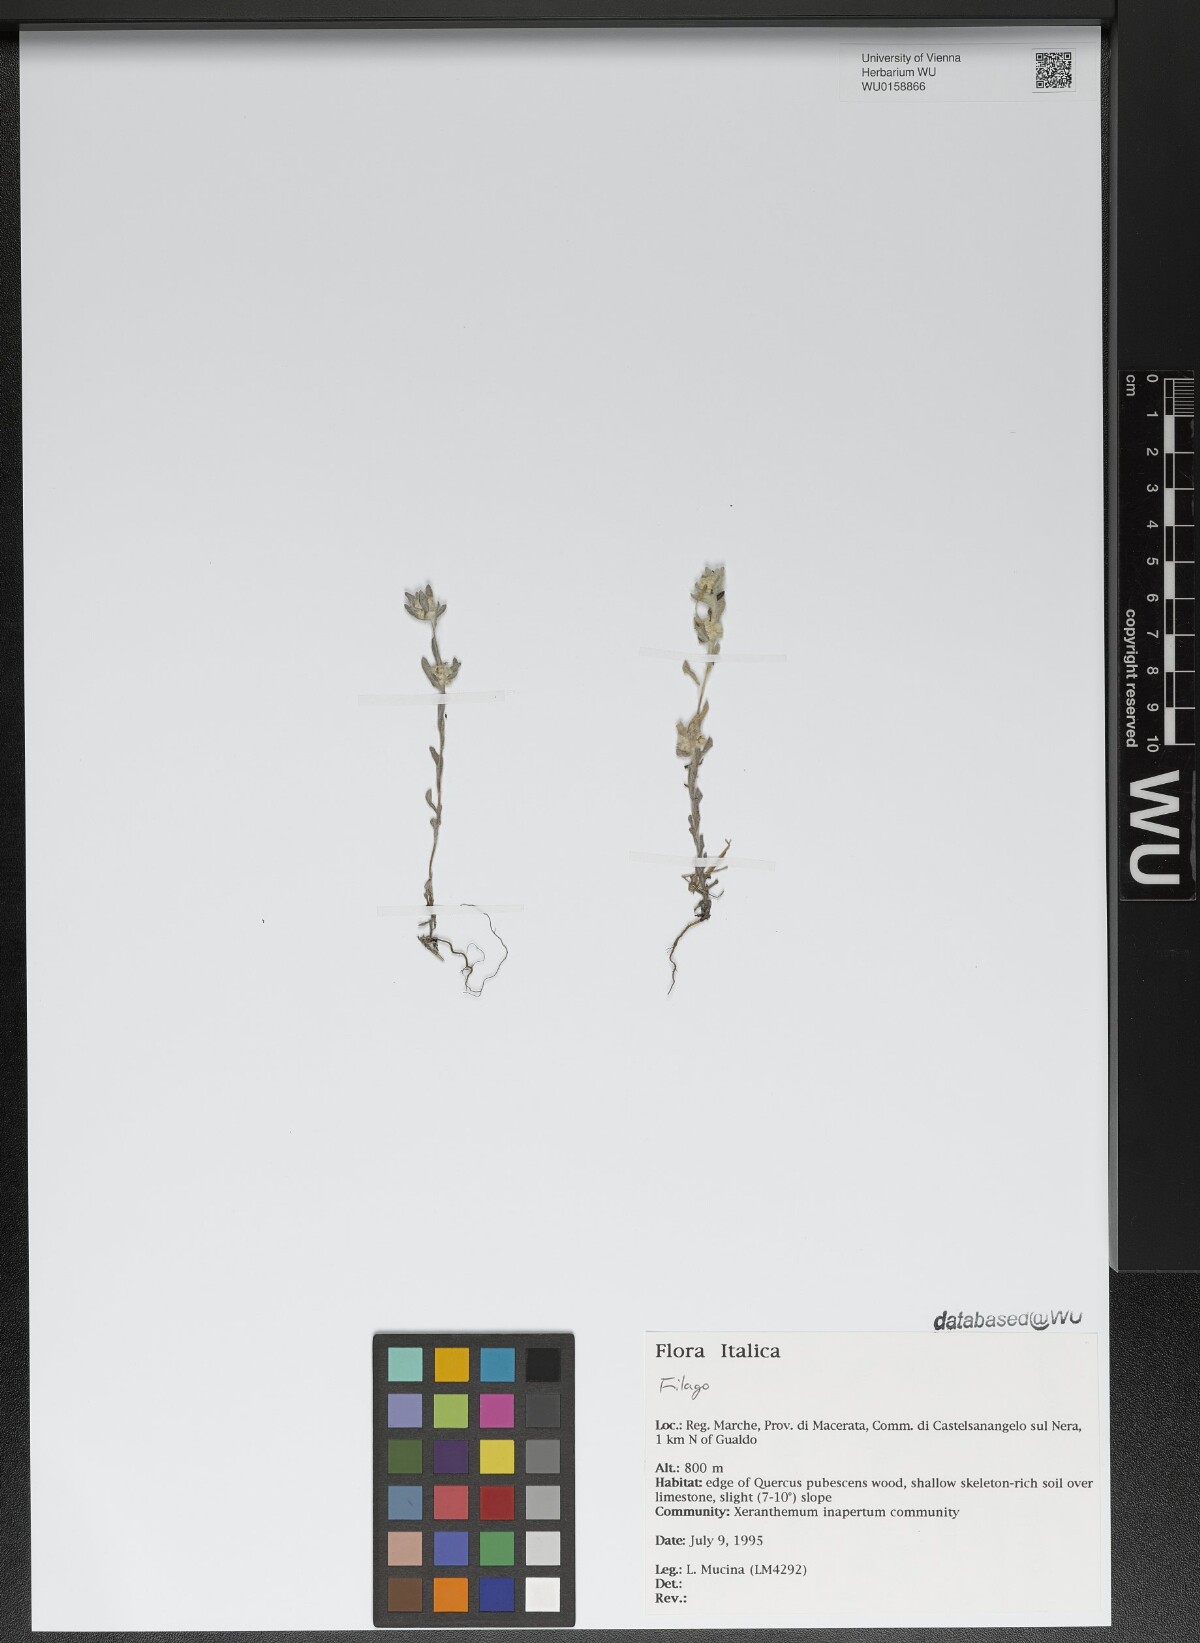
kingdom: Plantae
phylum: Tracheophyta
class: Magnoliopsida
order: Asterales
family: Asteraceae
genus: Filago
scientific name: Filago
